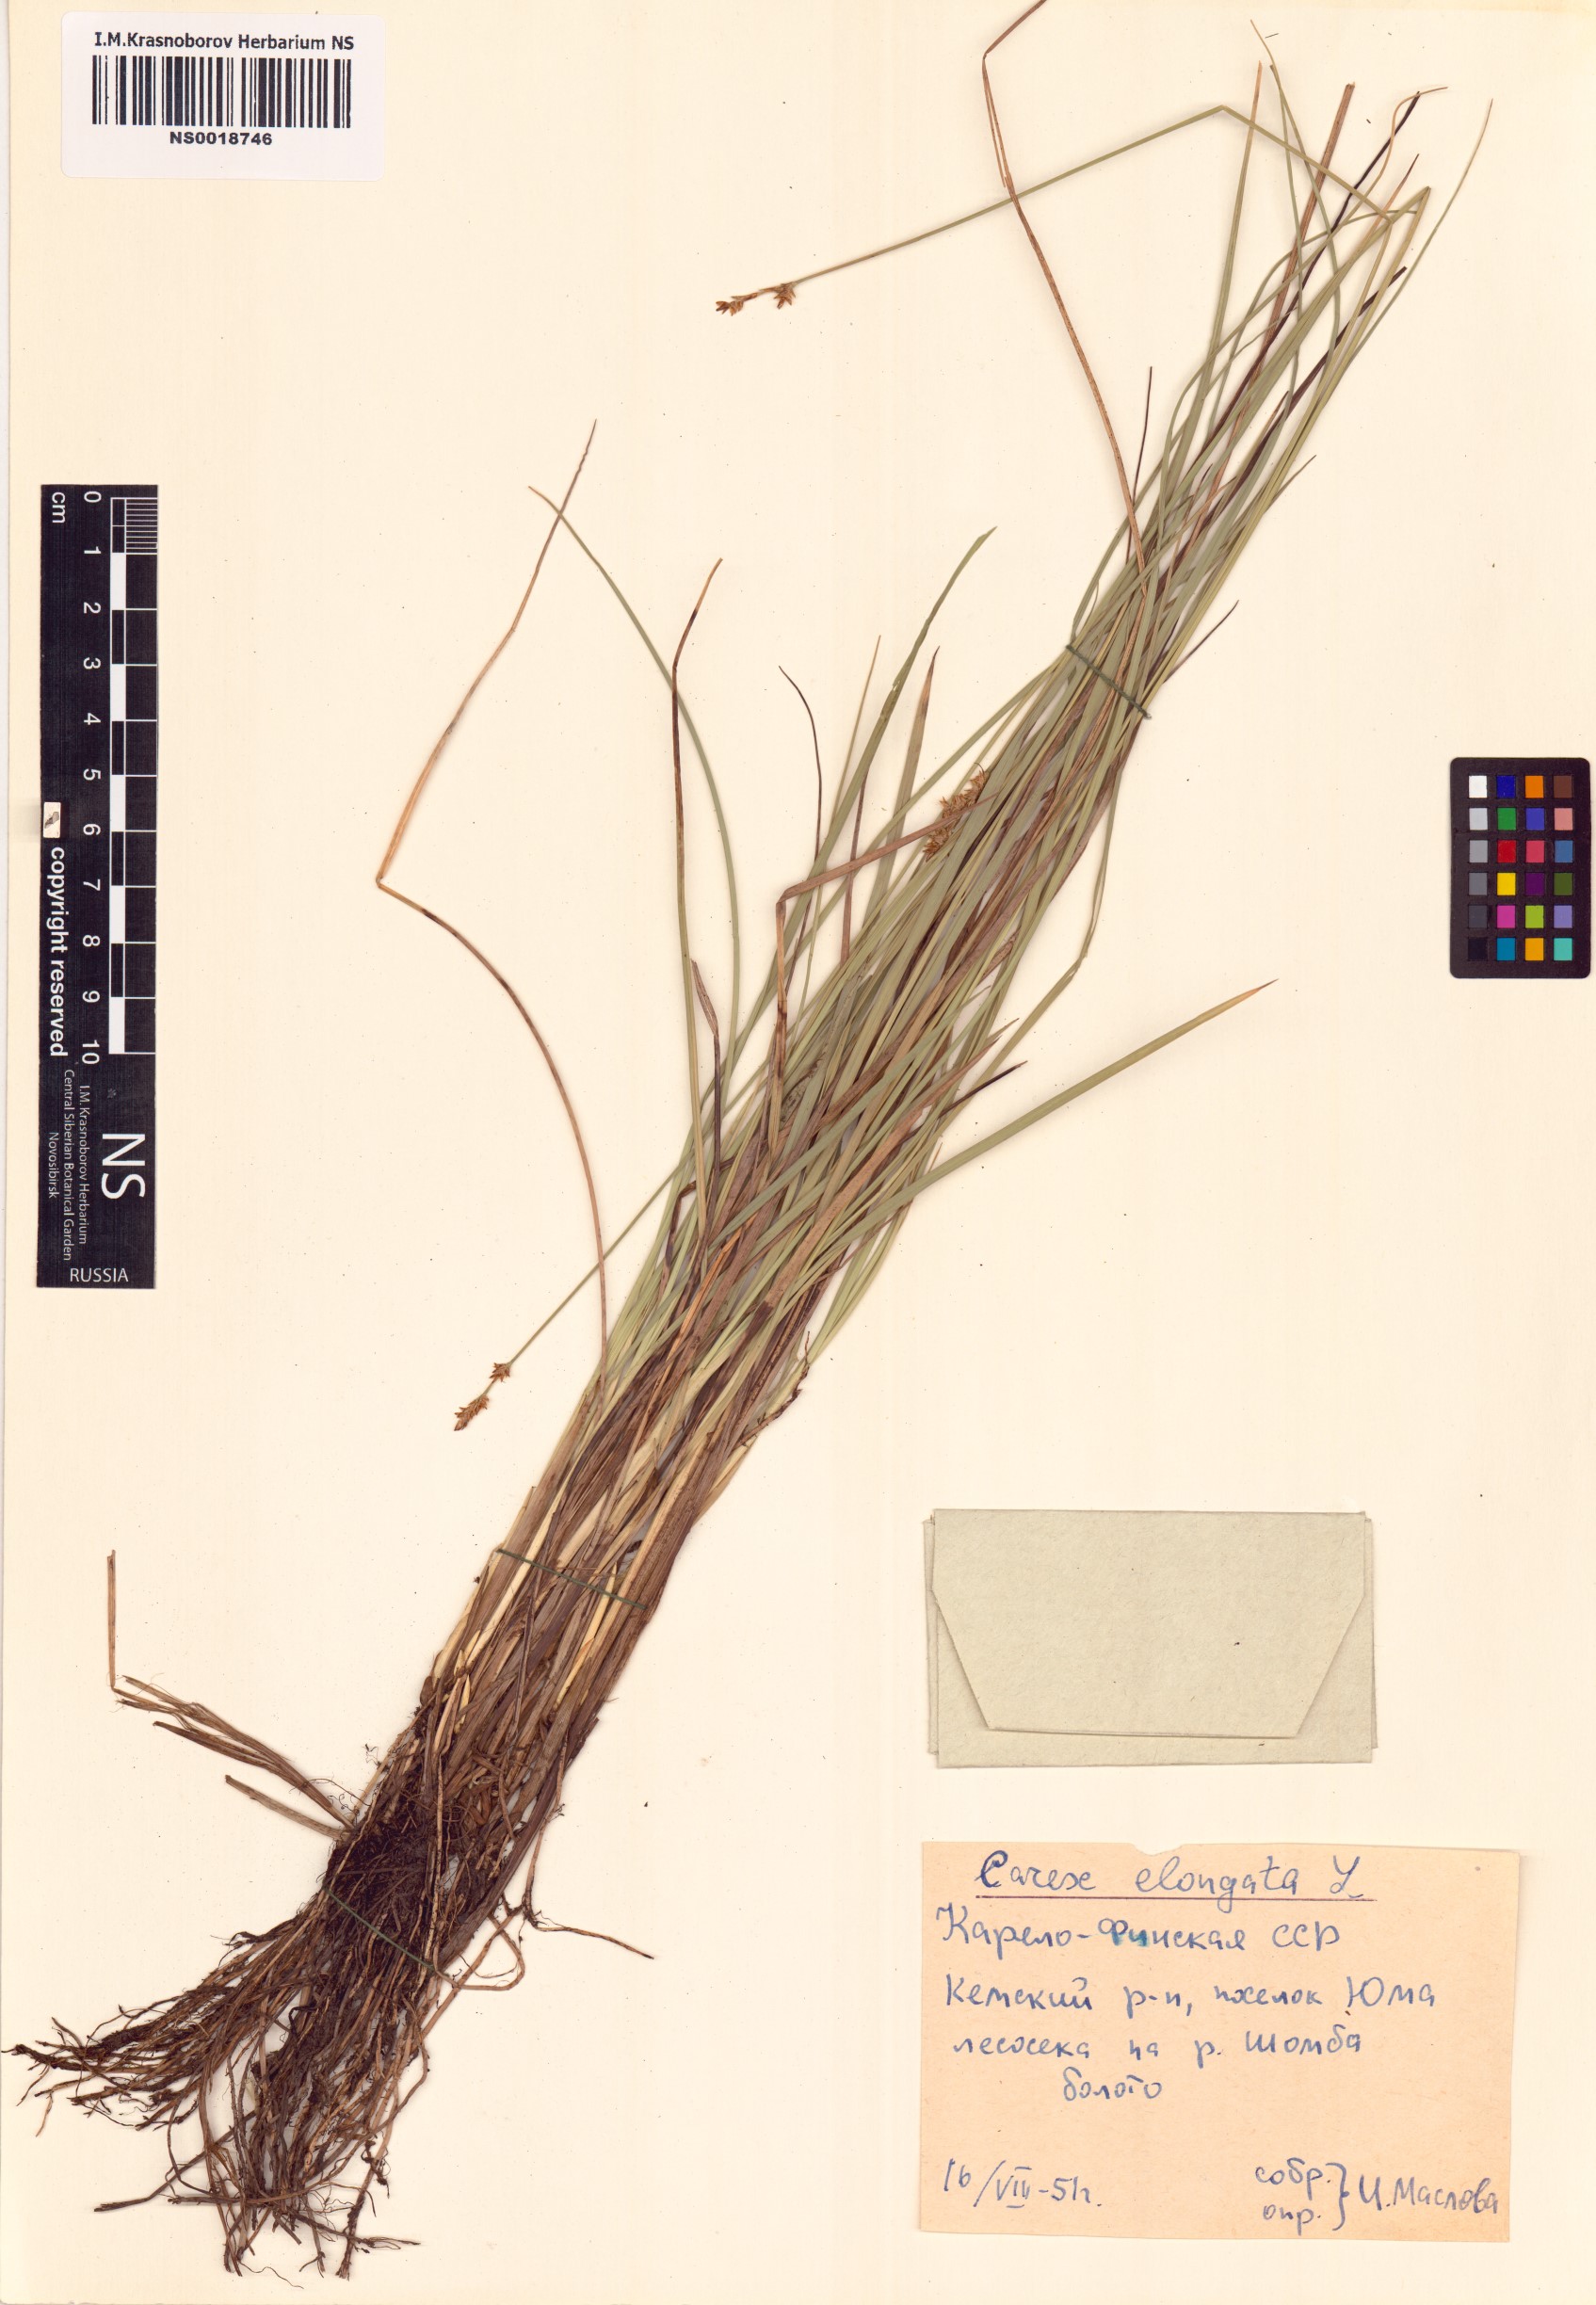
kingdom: Plantae
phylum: Tracheophyta
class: Liliopsida
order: Poales
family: Cyperaceae
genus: Carex
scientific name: Carex elongata
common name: Elongated sedge
